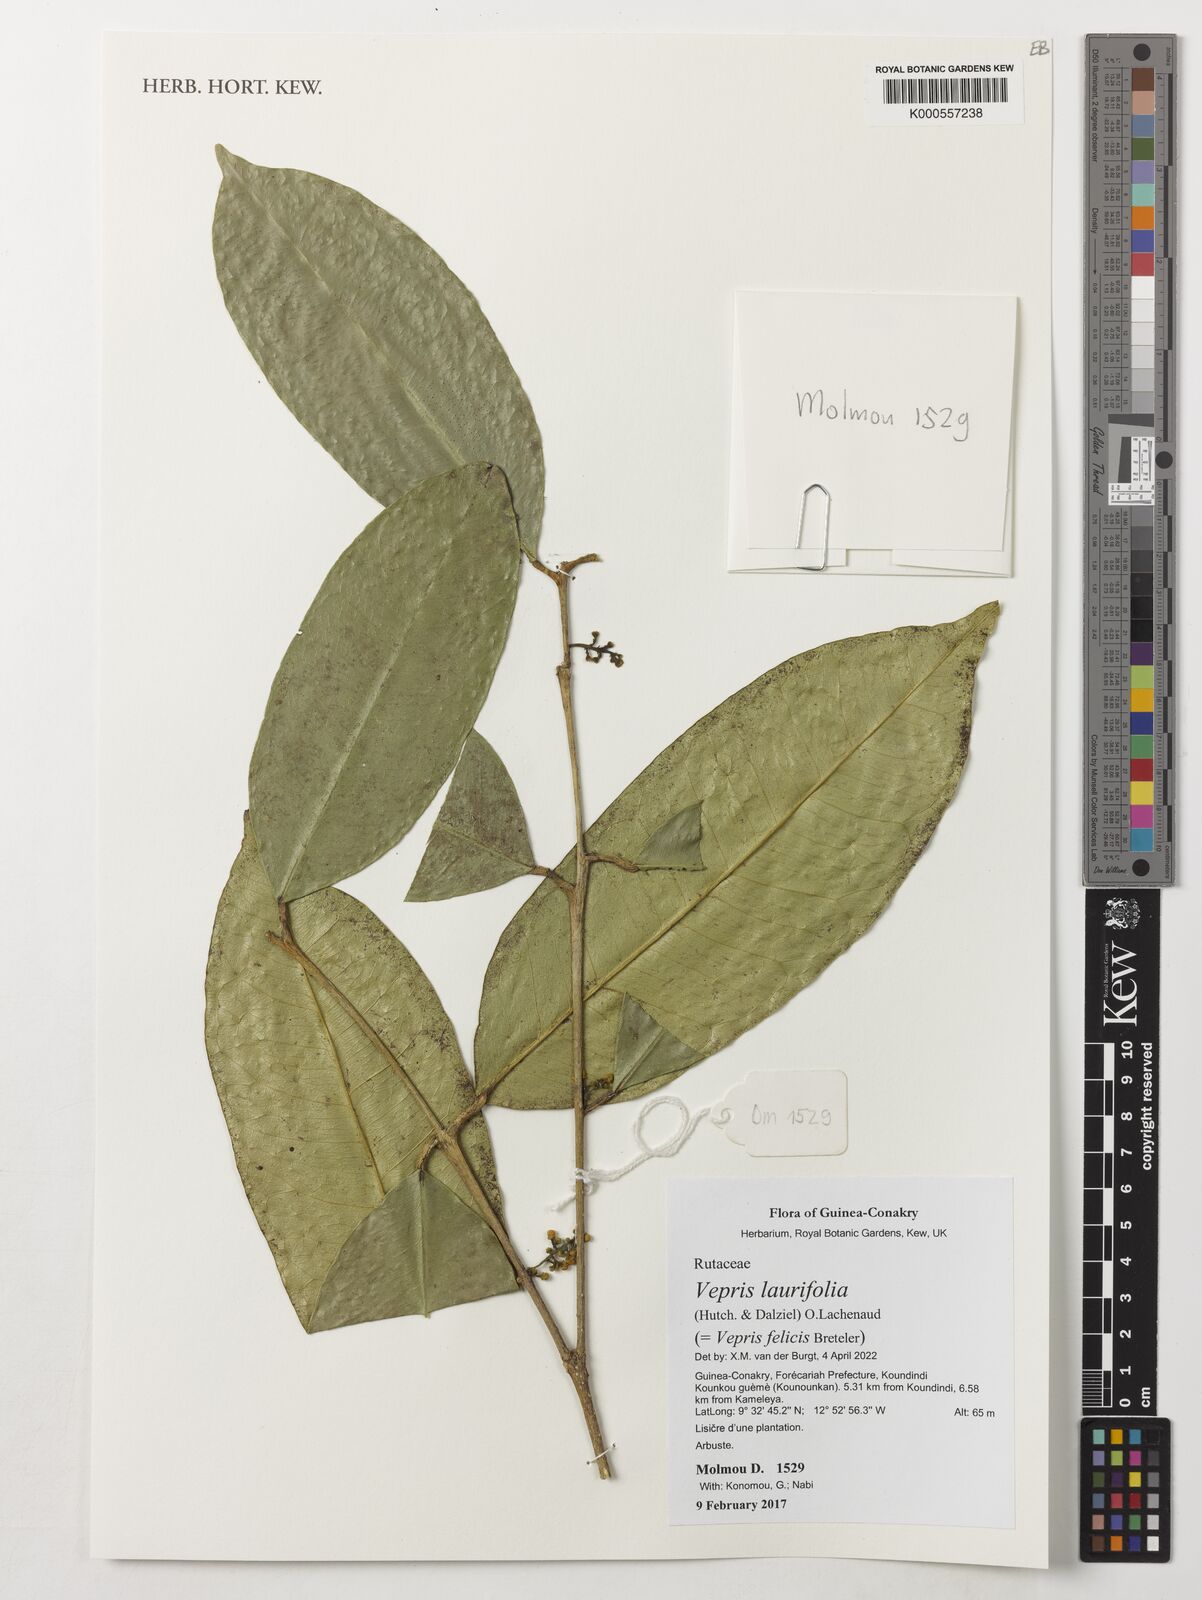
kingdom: Plantae
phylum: Tracheophyta
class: Magnoliopsida
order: Sapindales
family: Rutaceae
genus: Vepris
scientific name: Vepris
